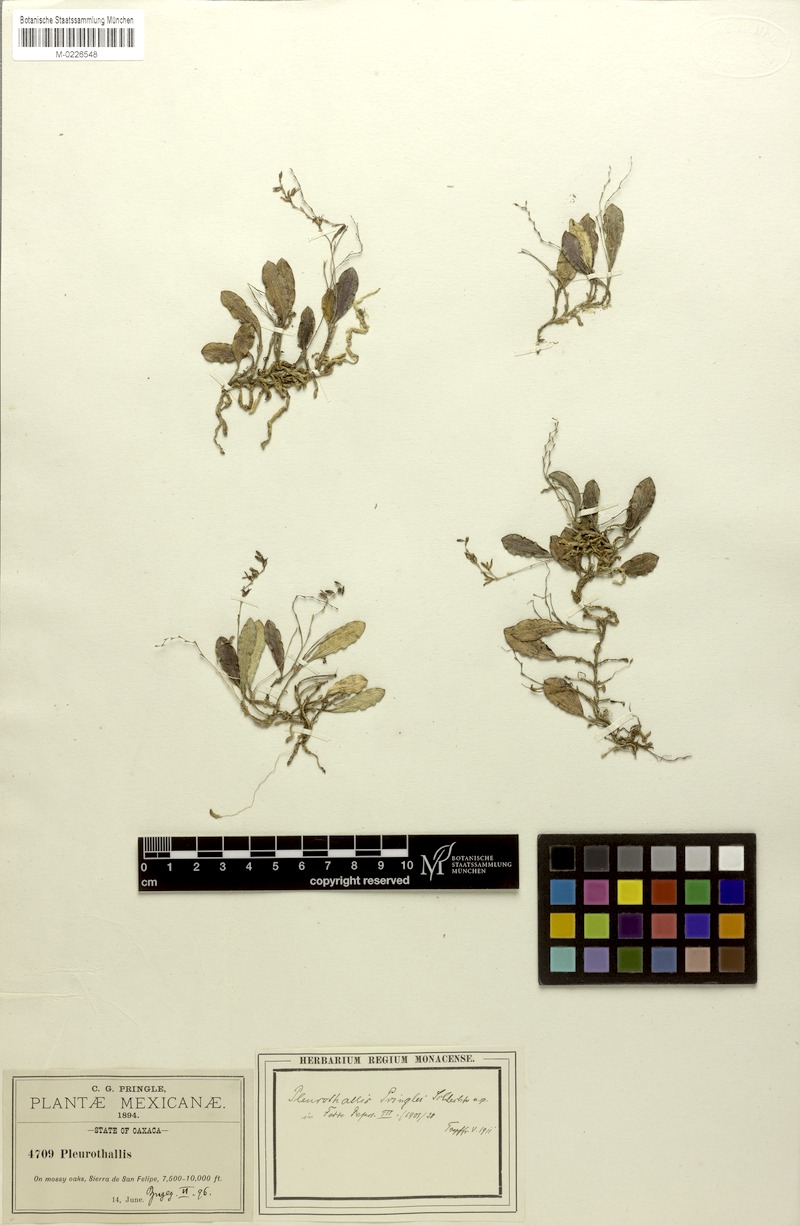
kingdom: Plantae
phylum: Tracheophyta
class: Liliopsida
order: Asparagales
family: Orchidaceae
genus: Trichosalpinx
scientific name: Trichosalpinx pringlei
